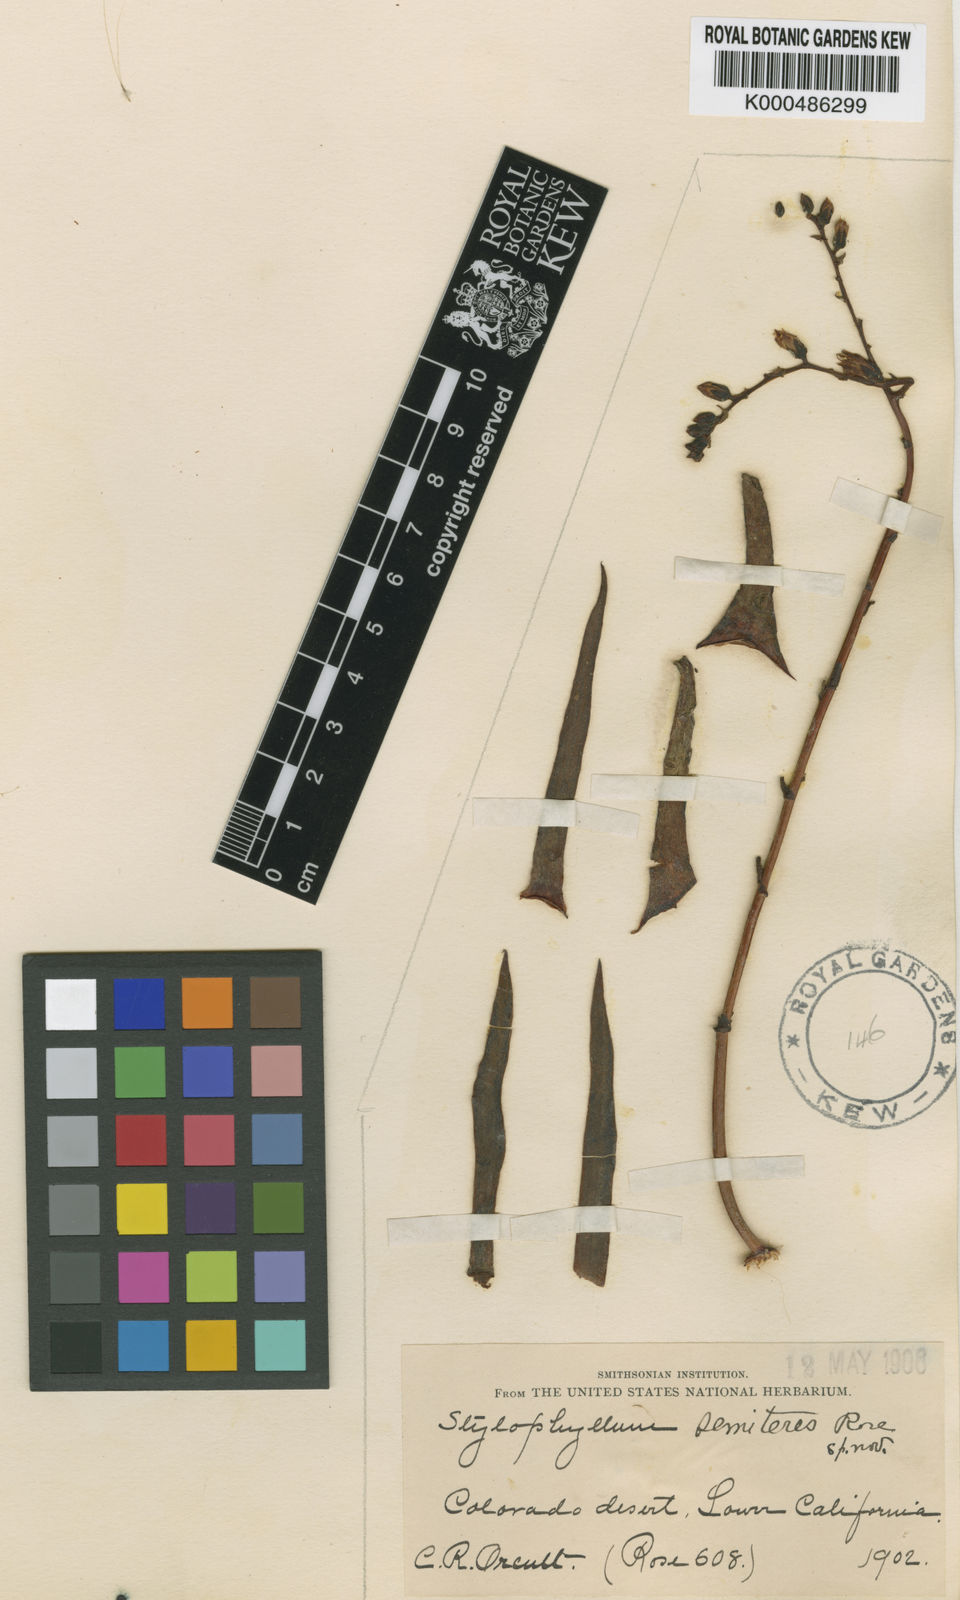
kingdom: Plantae
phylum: Tracheophyta
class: Magnoliopsida
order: Saxifragales
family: Crassulaceae
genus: Dudleya
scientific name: Dudleya semiteres
